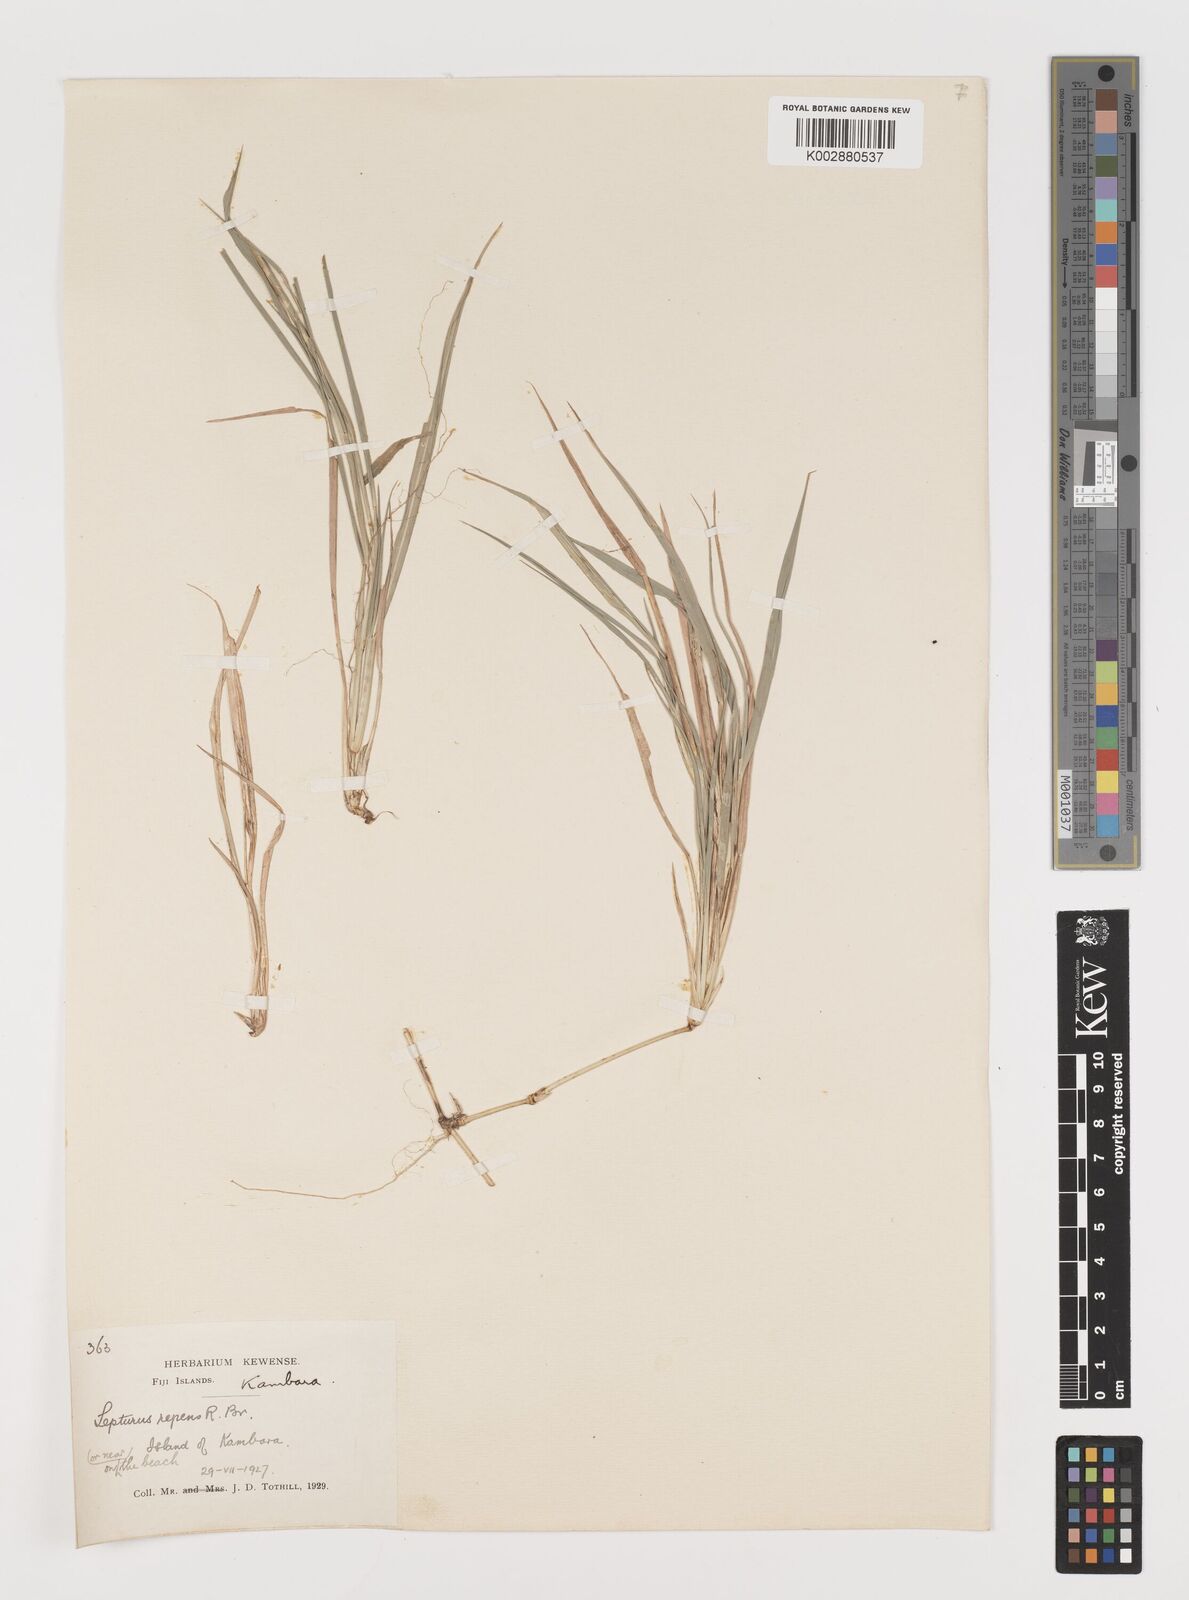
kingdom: Plantae
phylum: Tracheophyta
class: Liliopsida
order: Poales
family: Poaceae
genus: Lepturus
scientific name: Lepturus repens
